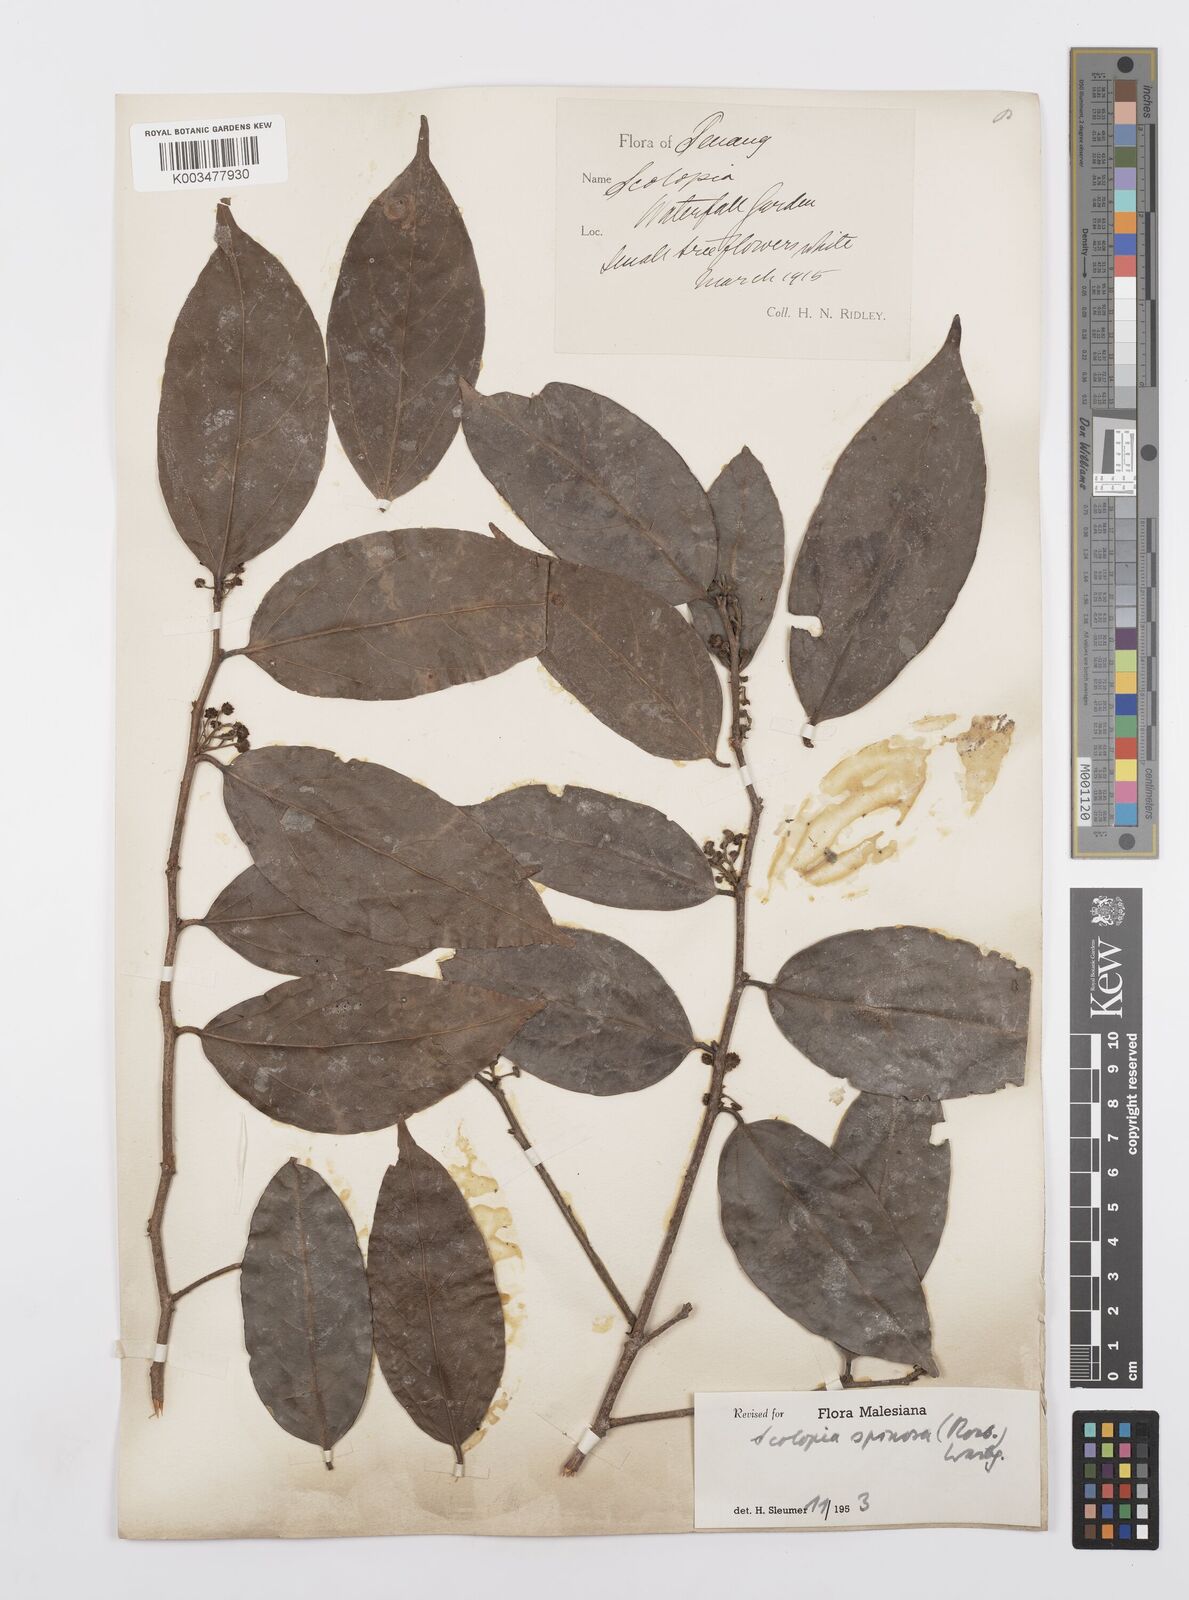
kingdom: Plantae
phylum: Tracheophyta
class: Magnoliopsida
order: Malpighiales
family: Salicaceae
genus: Scolopia
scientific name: Scolopia spinosa
